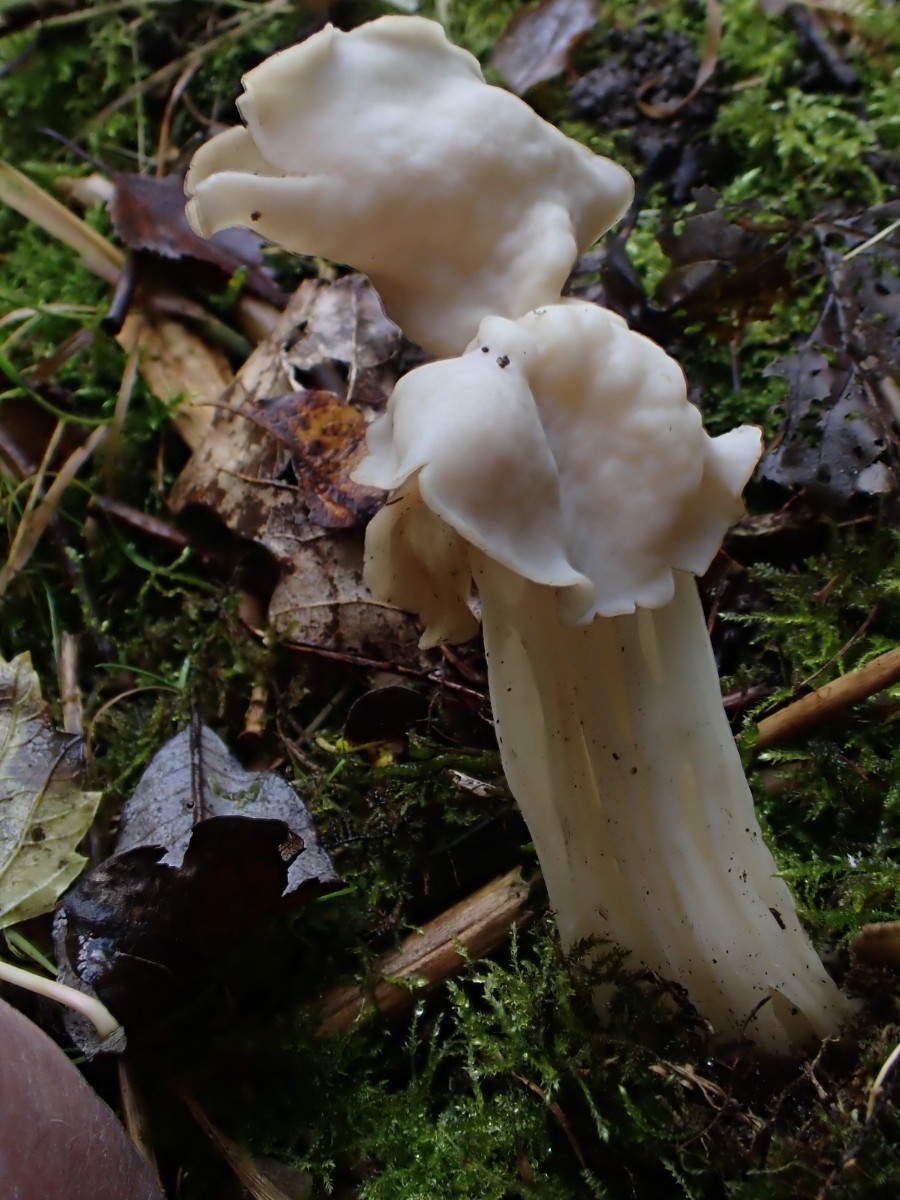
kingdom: Fungi
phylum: Ascomycota
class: Pezizomycetes
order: Pezizales
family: Helvellaceae
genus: Helvella
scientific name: Helvella crispa
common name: kruset foldhat
